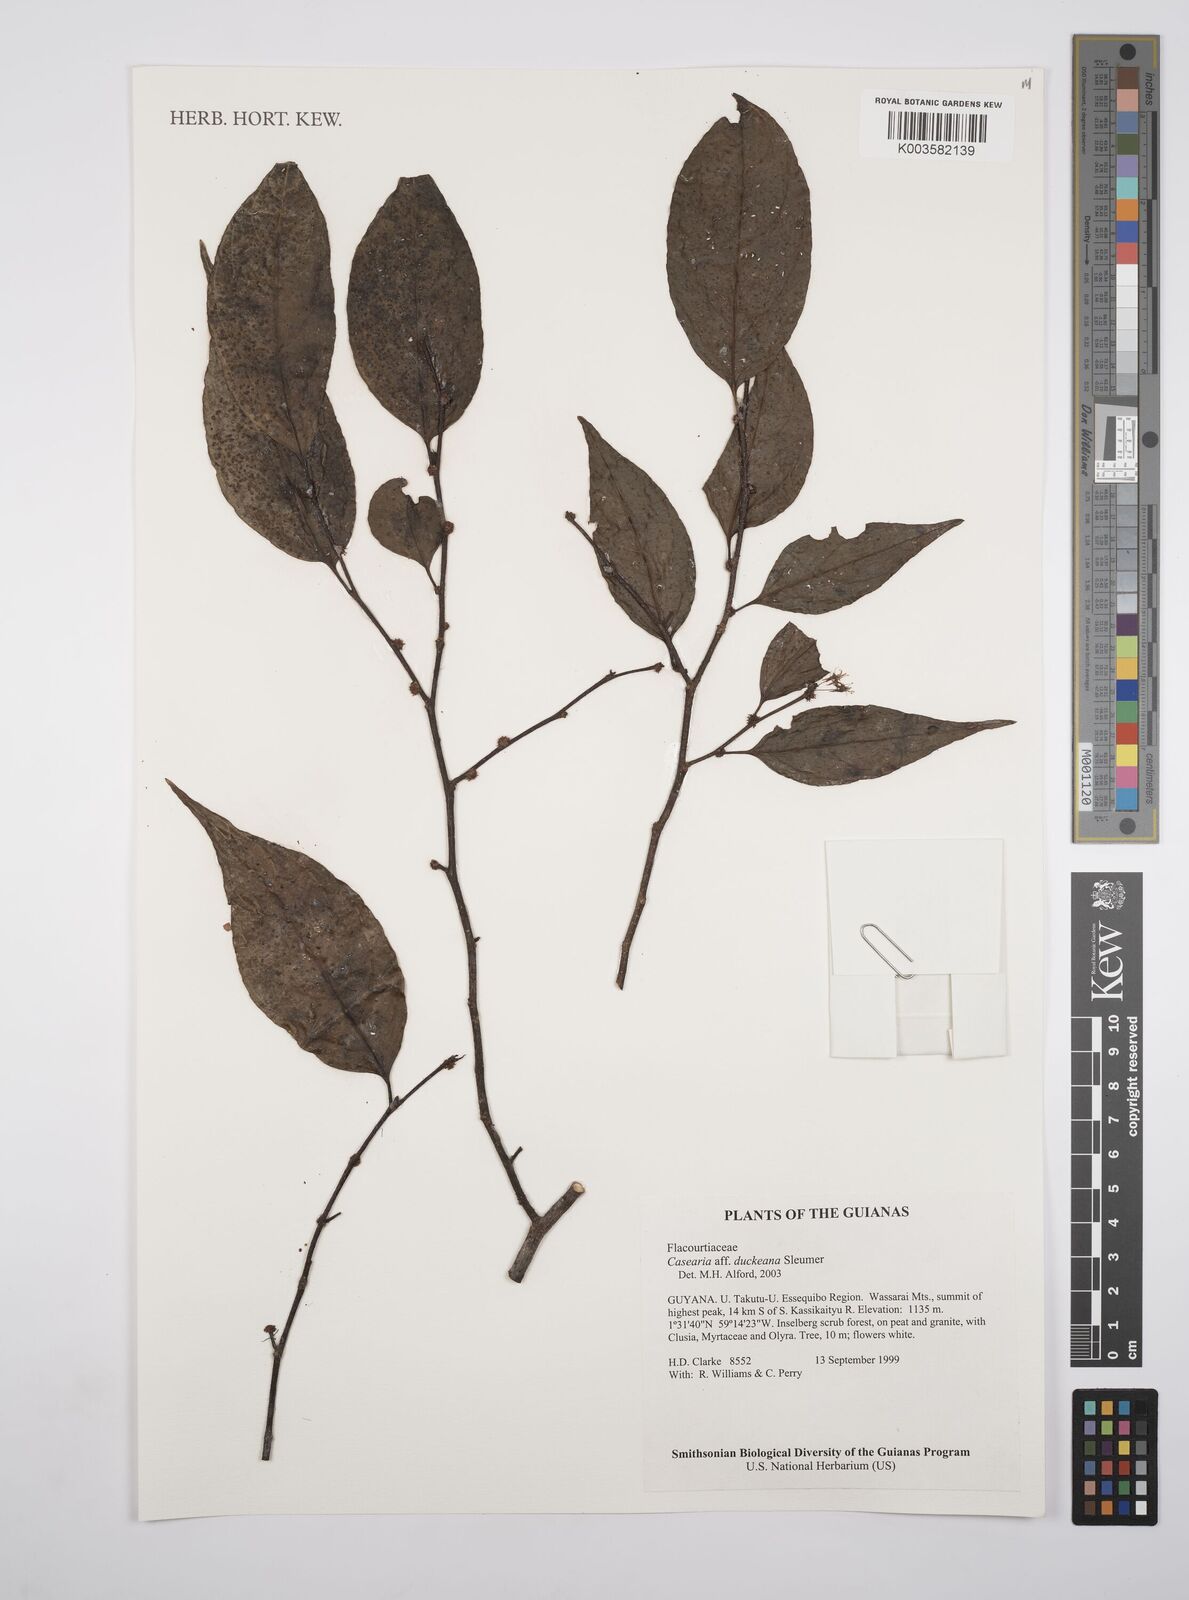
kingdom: Plantae
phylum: Tracheophyta
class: Magnoliopsida
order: Malpighiales
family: Salicaceae
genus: Casearia
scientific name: Casearia duckeana
